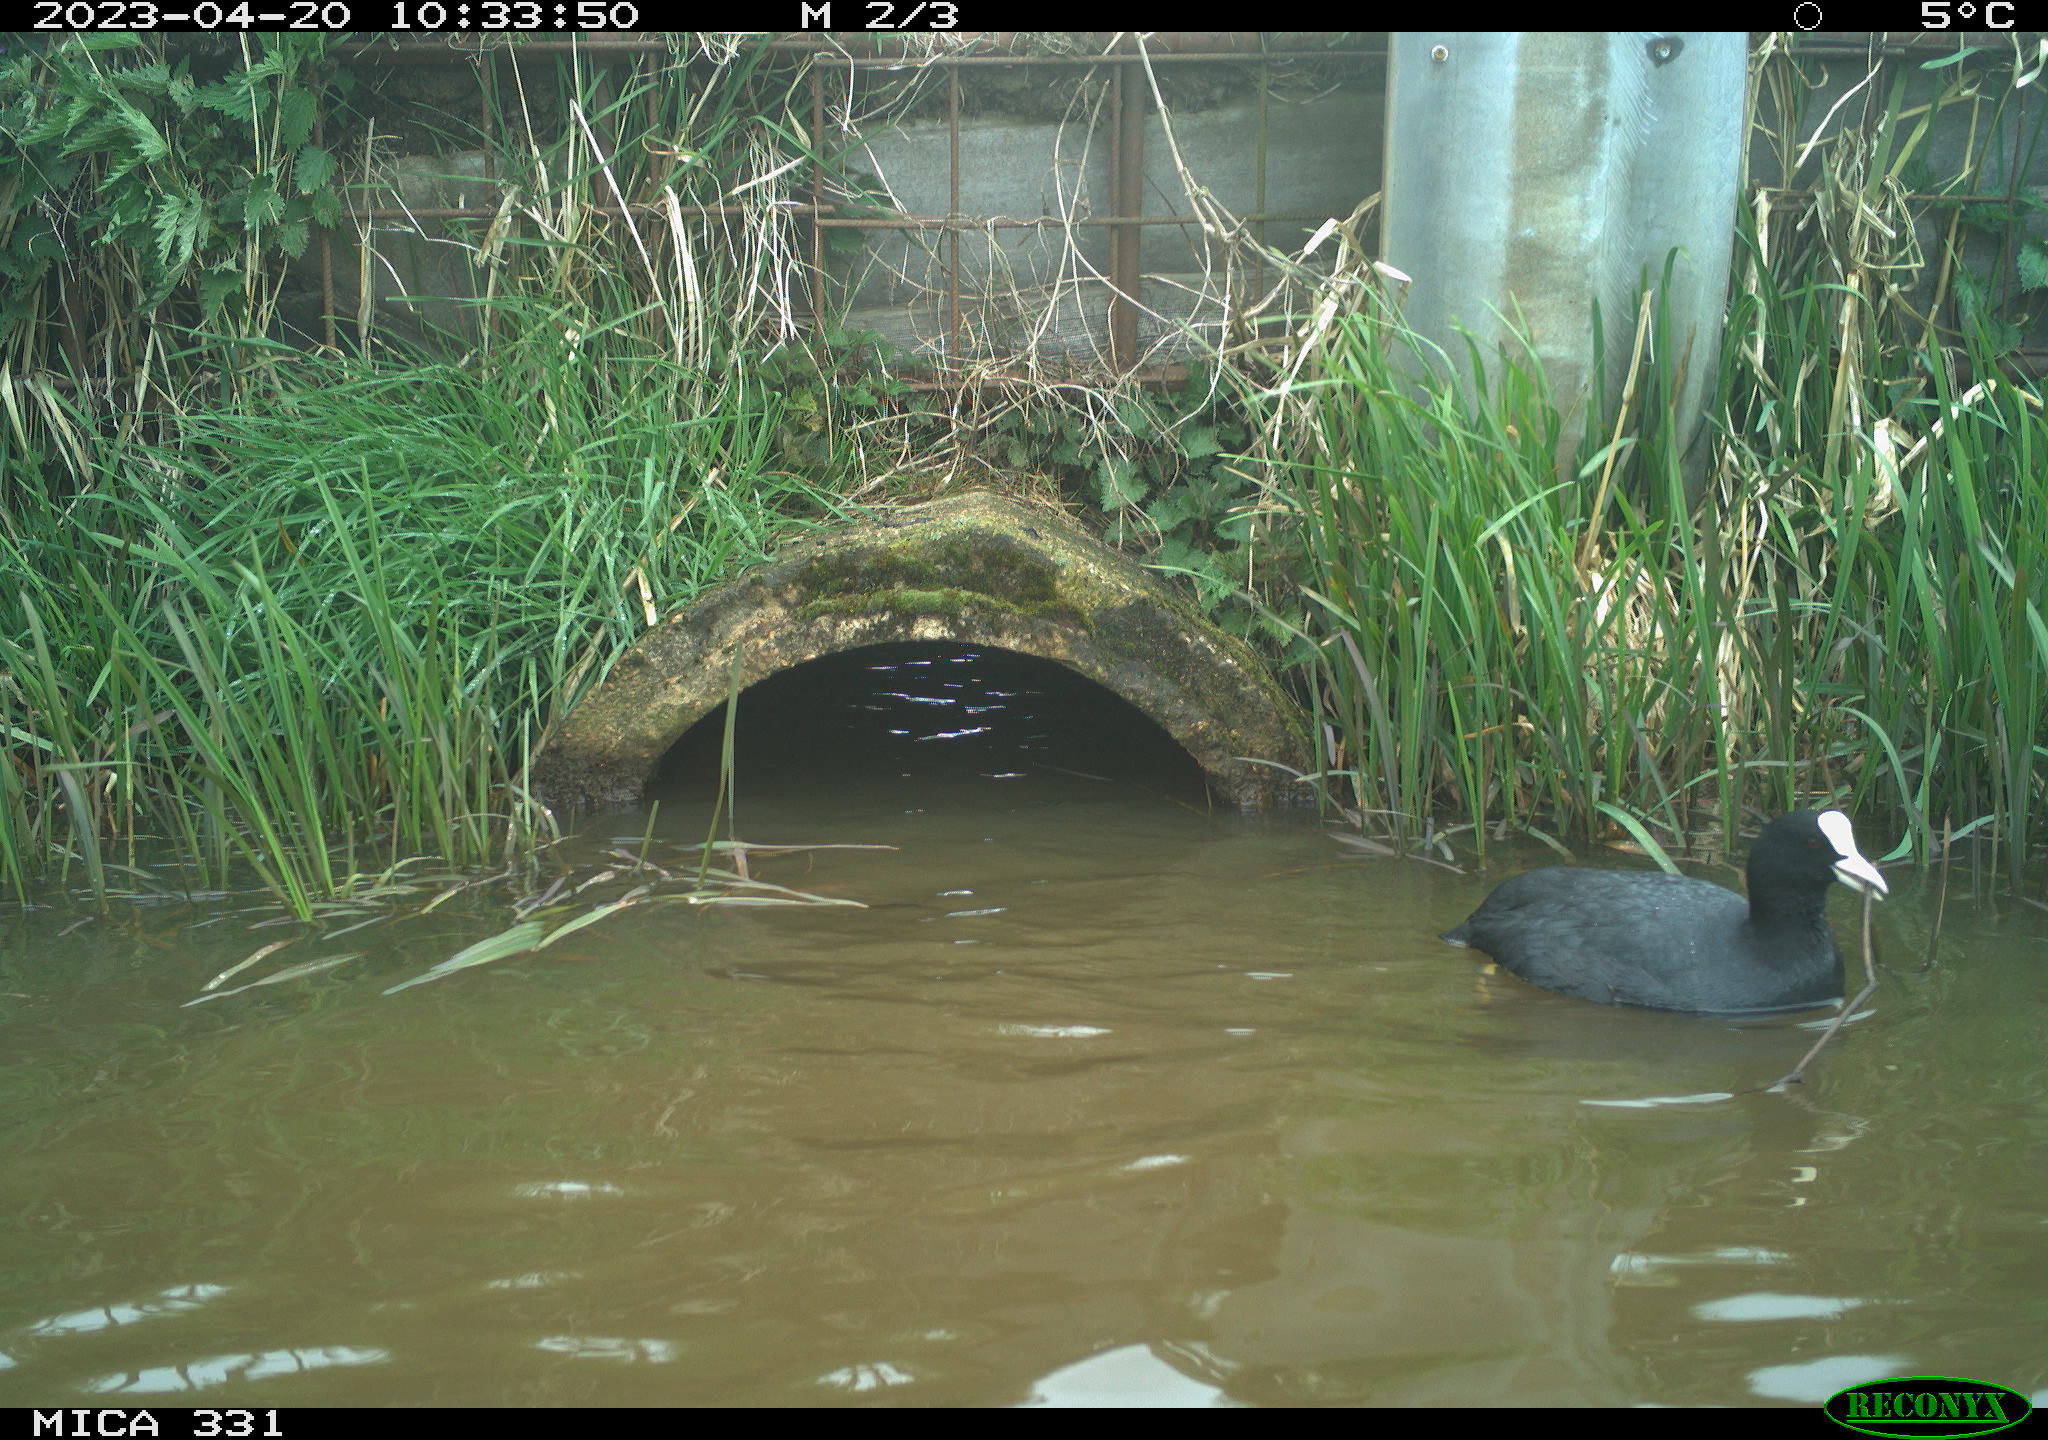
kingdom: Animalia
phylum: Chordata
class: Aves
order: Gruiformes
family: Rallidae
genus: Fulica
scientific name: Fulica atra
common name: Eurasian coot
